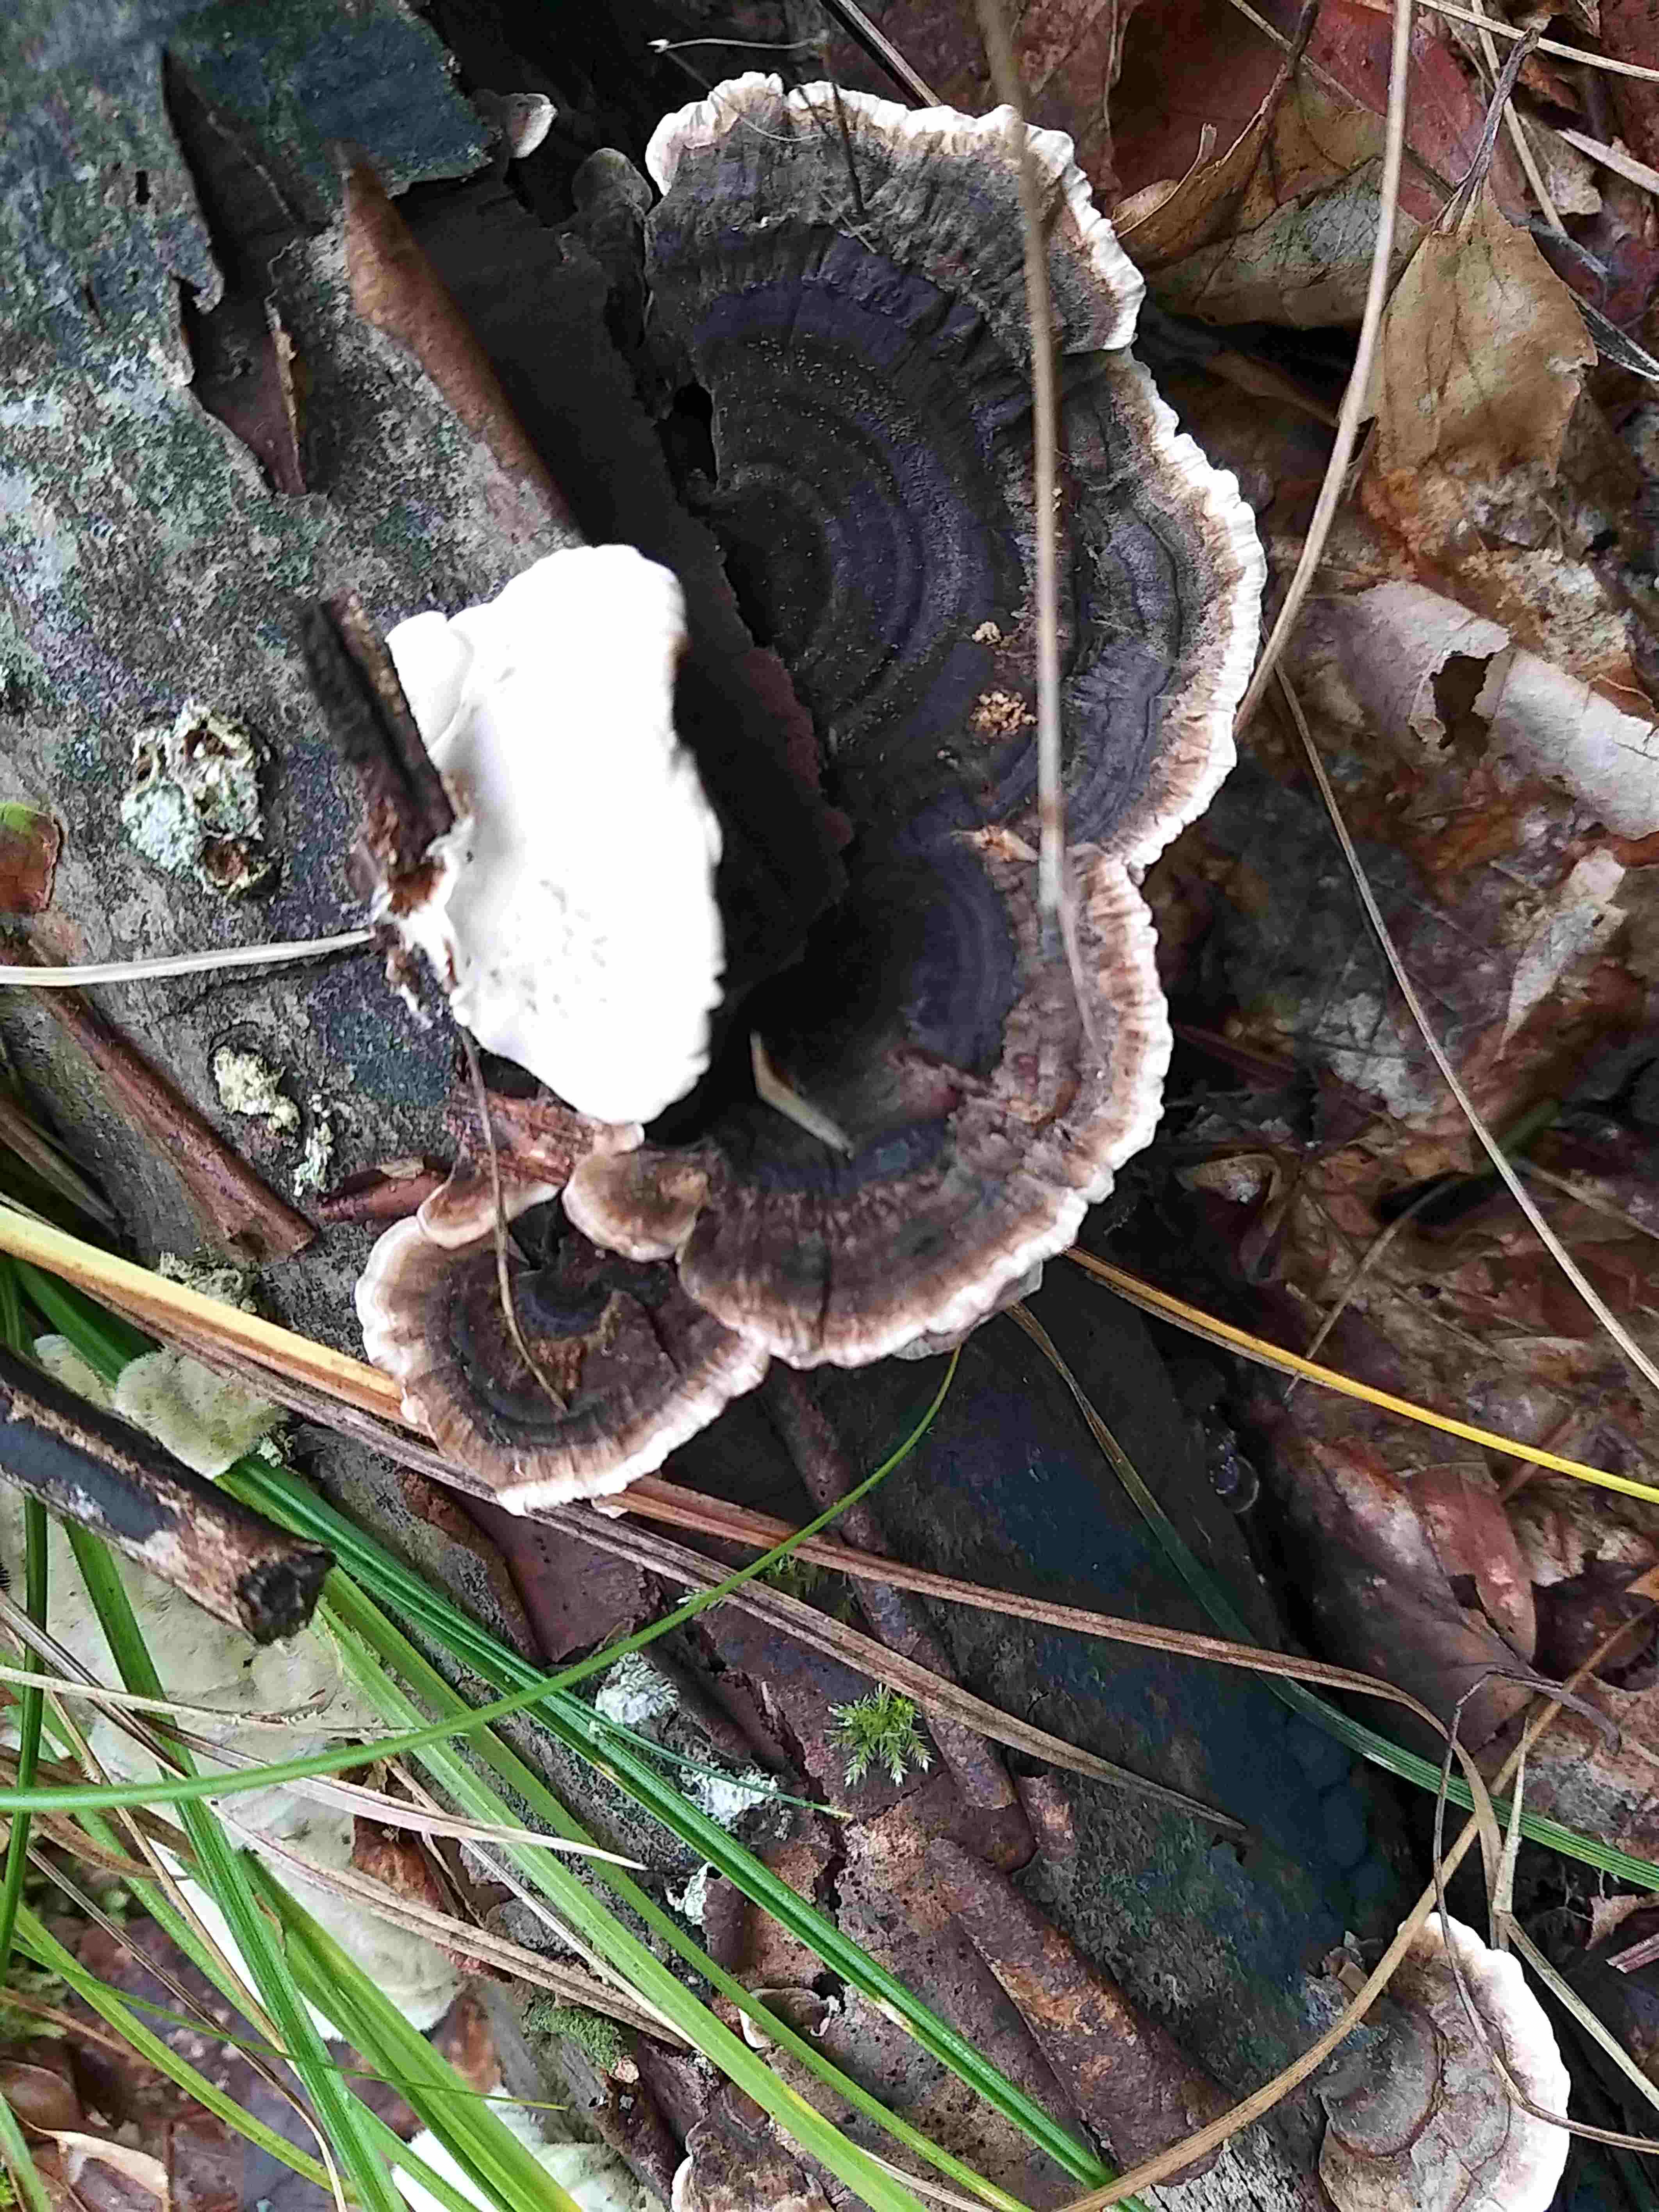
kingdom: Fungi
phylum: Basidiomycota
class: Agaricomycetes
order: Polyporales
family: Polyporaceae
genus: Trametes
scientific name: Trametes versicolor
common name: broget læderporesvamp
